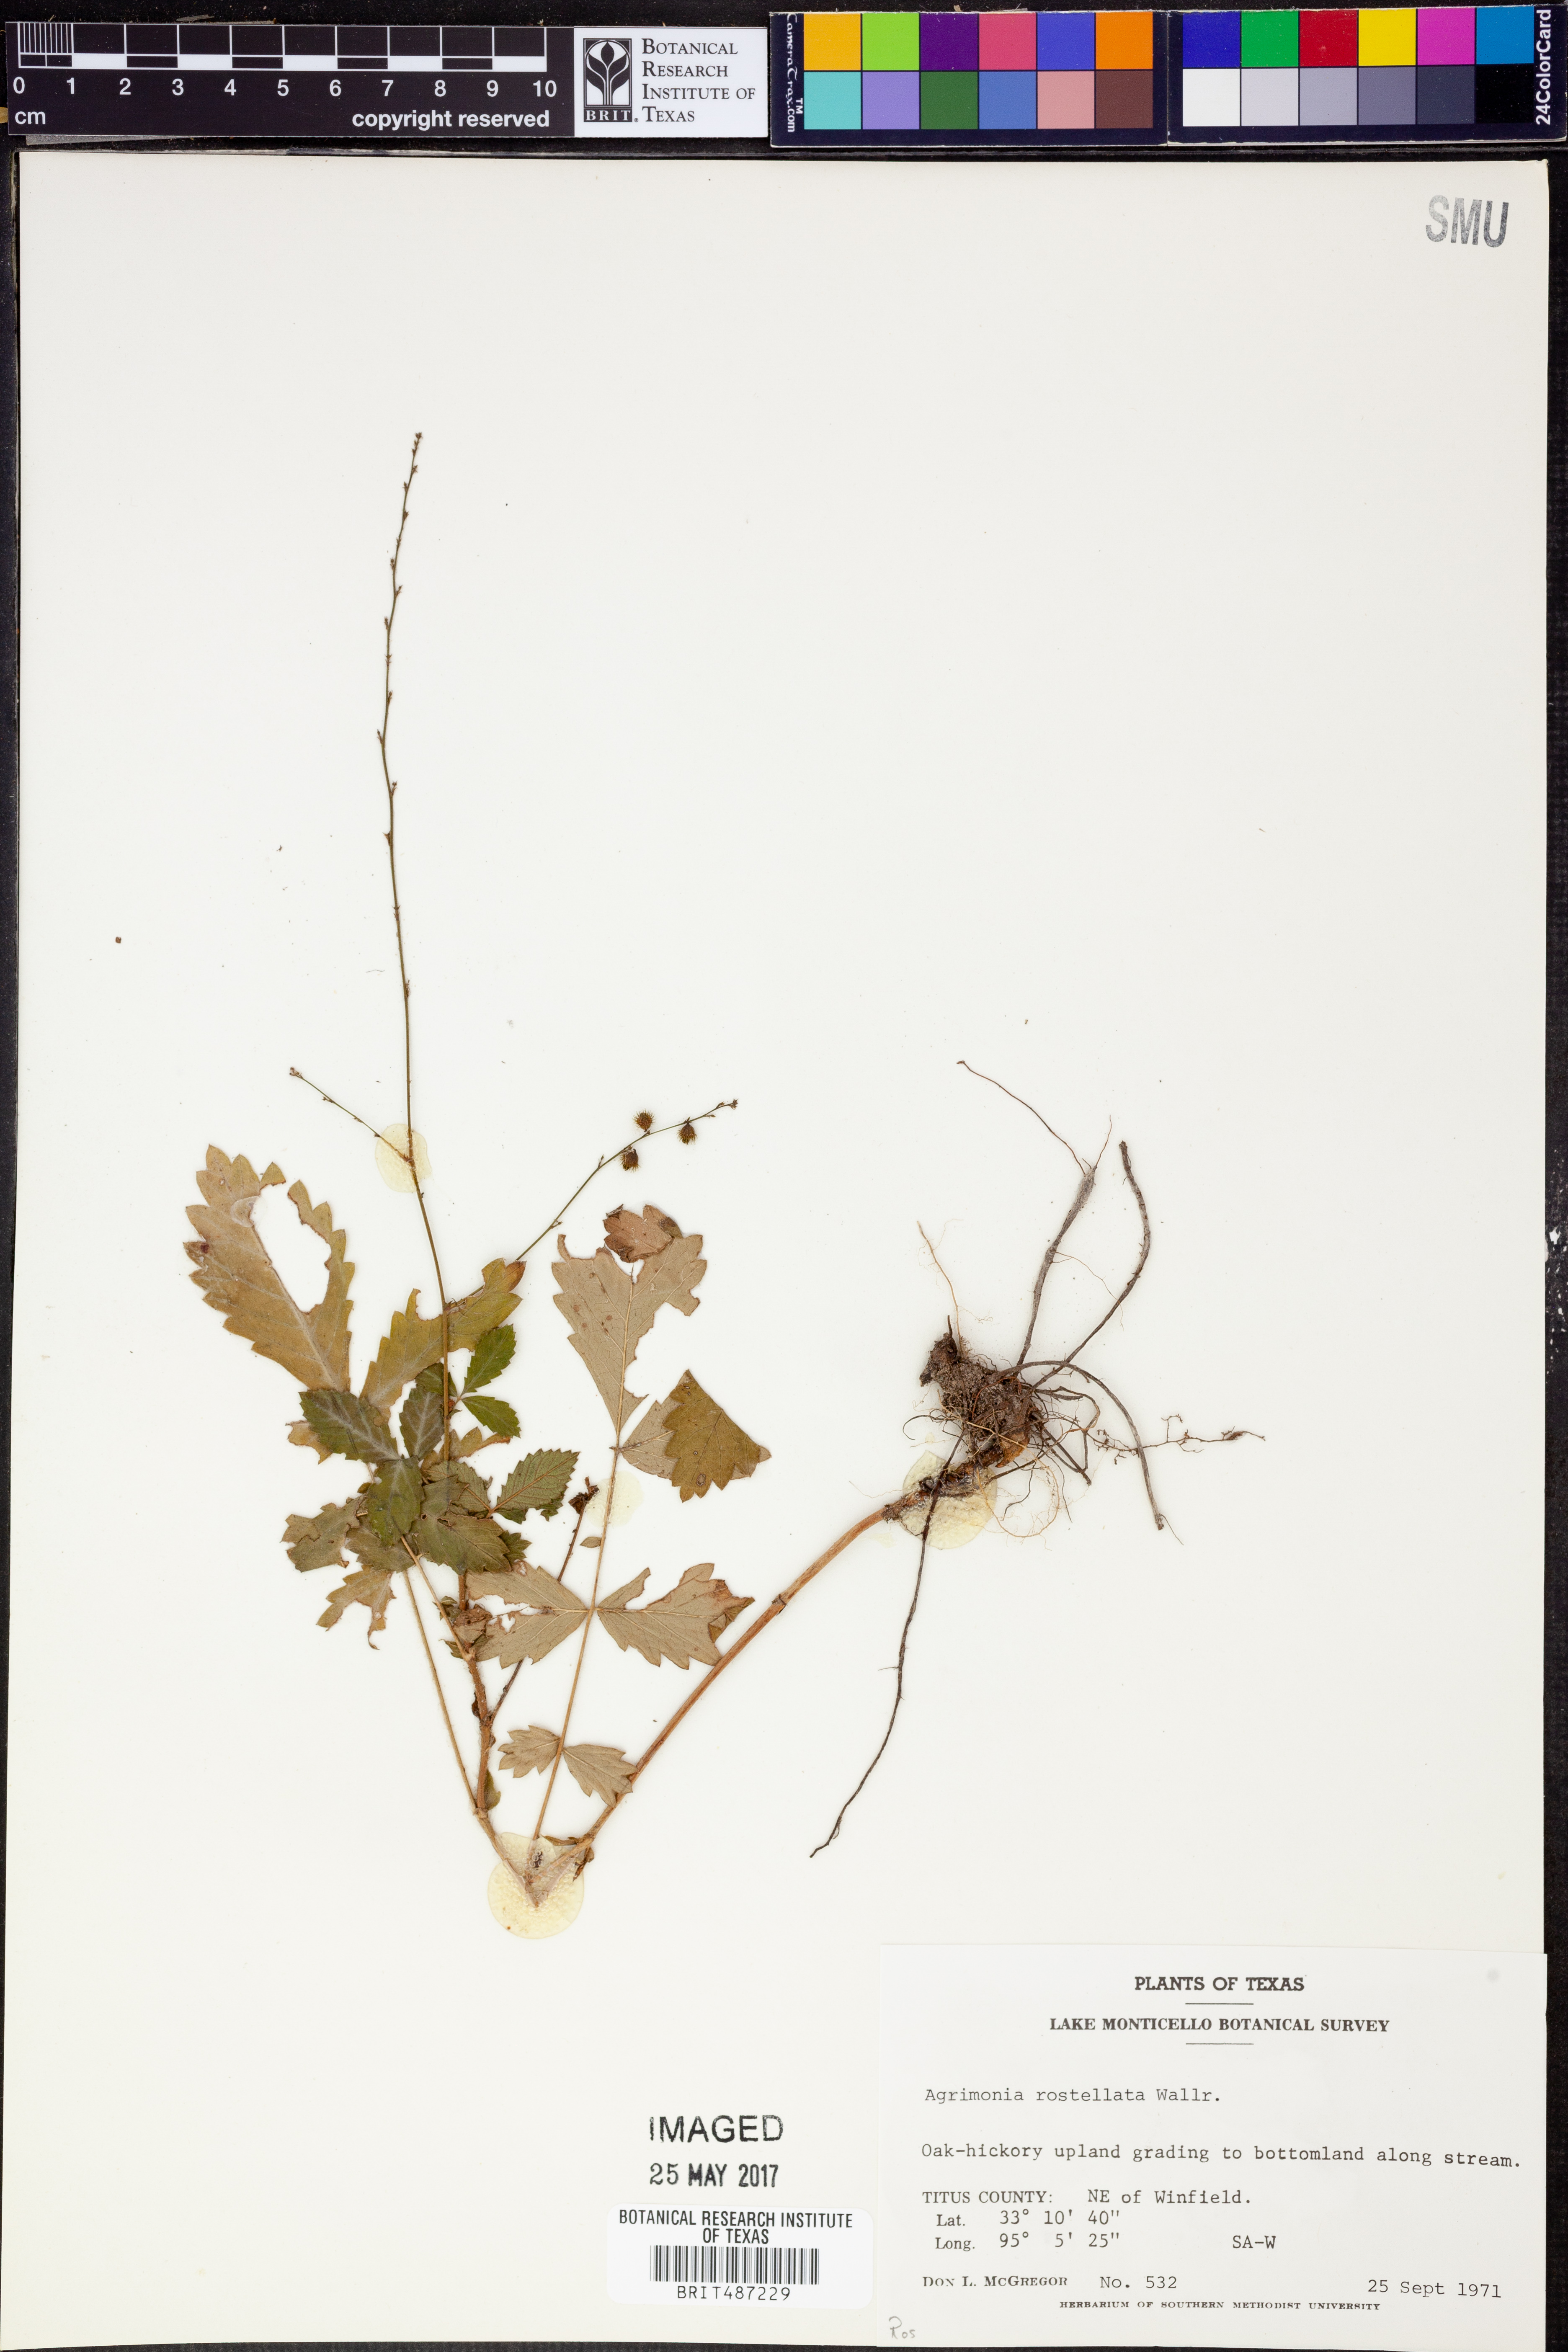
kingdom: Plantae
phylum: Tracheophyta
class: Magnoliopsida
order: Rosales
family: Rosaceae
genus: Agrimonia
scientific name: Agrimonia rostellata
